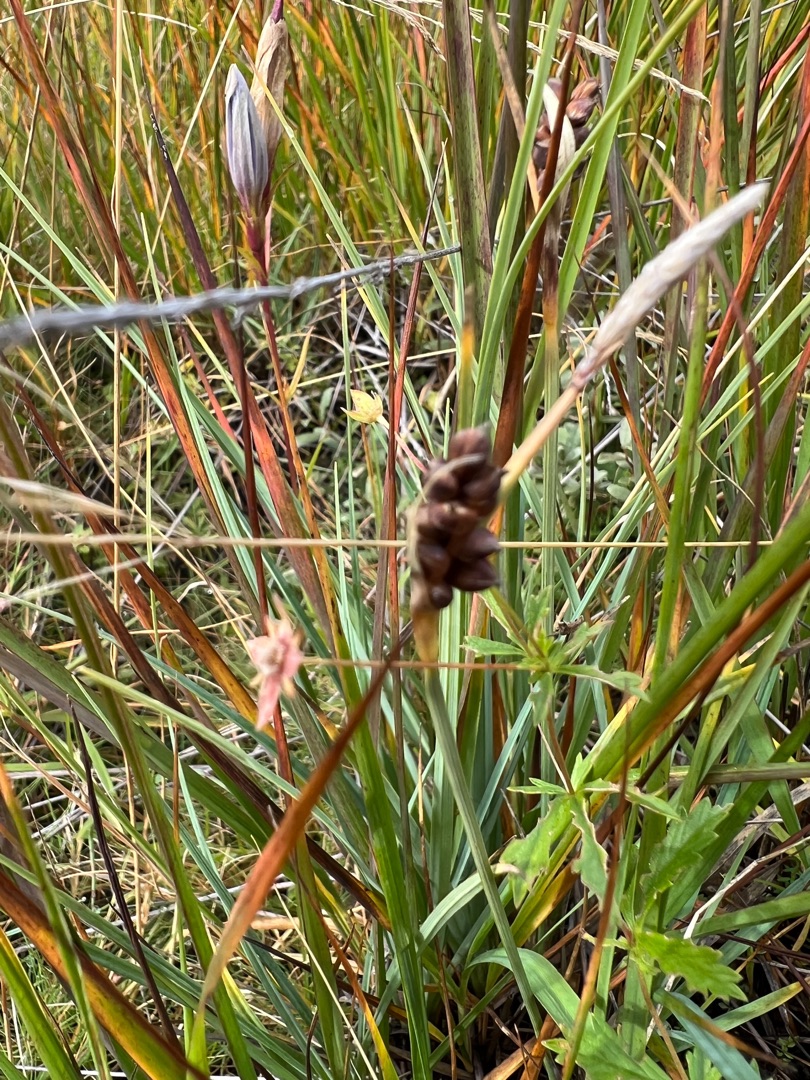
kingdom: Plantae
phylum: Tracheophyta
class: Liliopsida
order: Poales
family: Cyperaceae
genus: Carex
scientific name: Carex panicea
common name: Hirse-star
